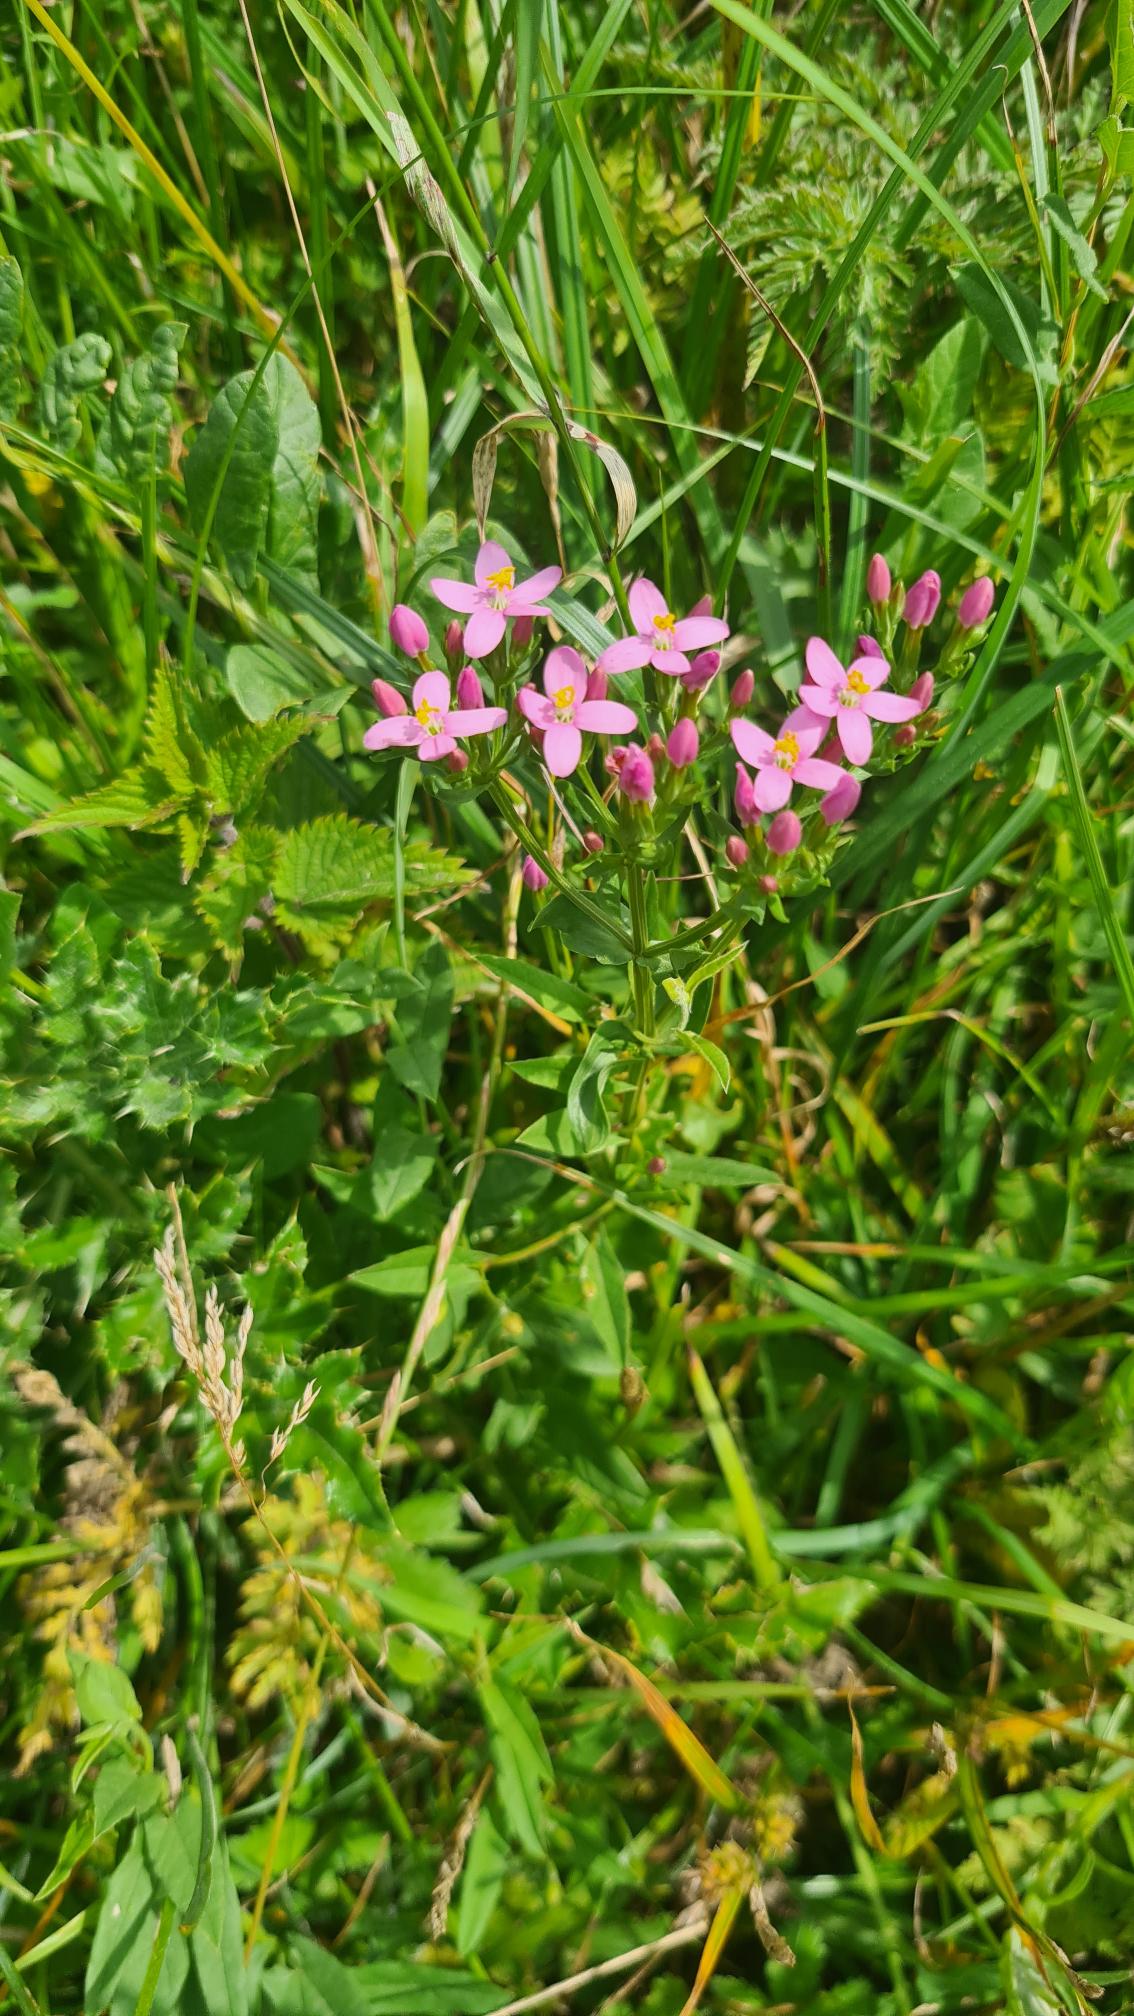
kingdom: Plantae
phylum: Tracheophyta
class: Magnoliopsida
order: Gentianales
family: Gentianaceae
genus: Centaurium
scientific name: Centaurium littorale
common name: Strand-tusindgylden
